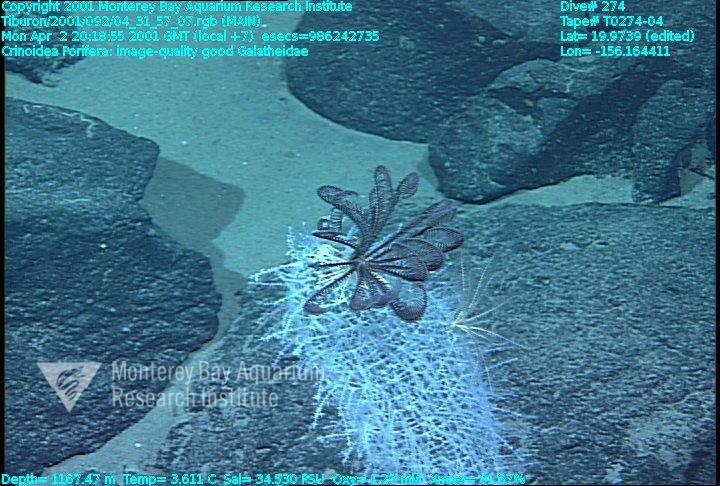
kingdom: Animalia
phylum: Porifera
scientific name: Porifera
